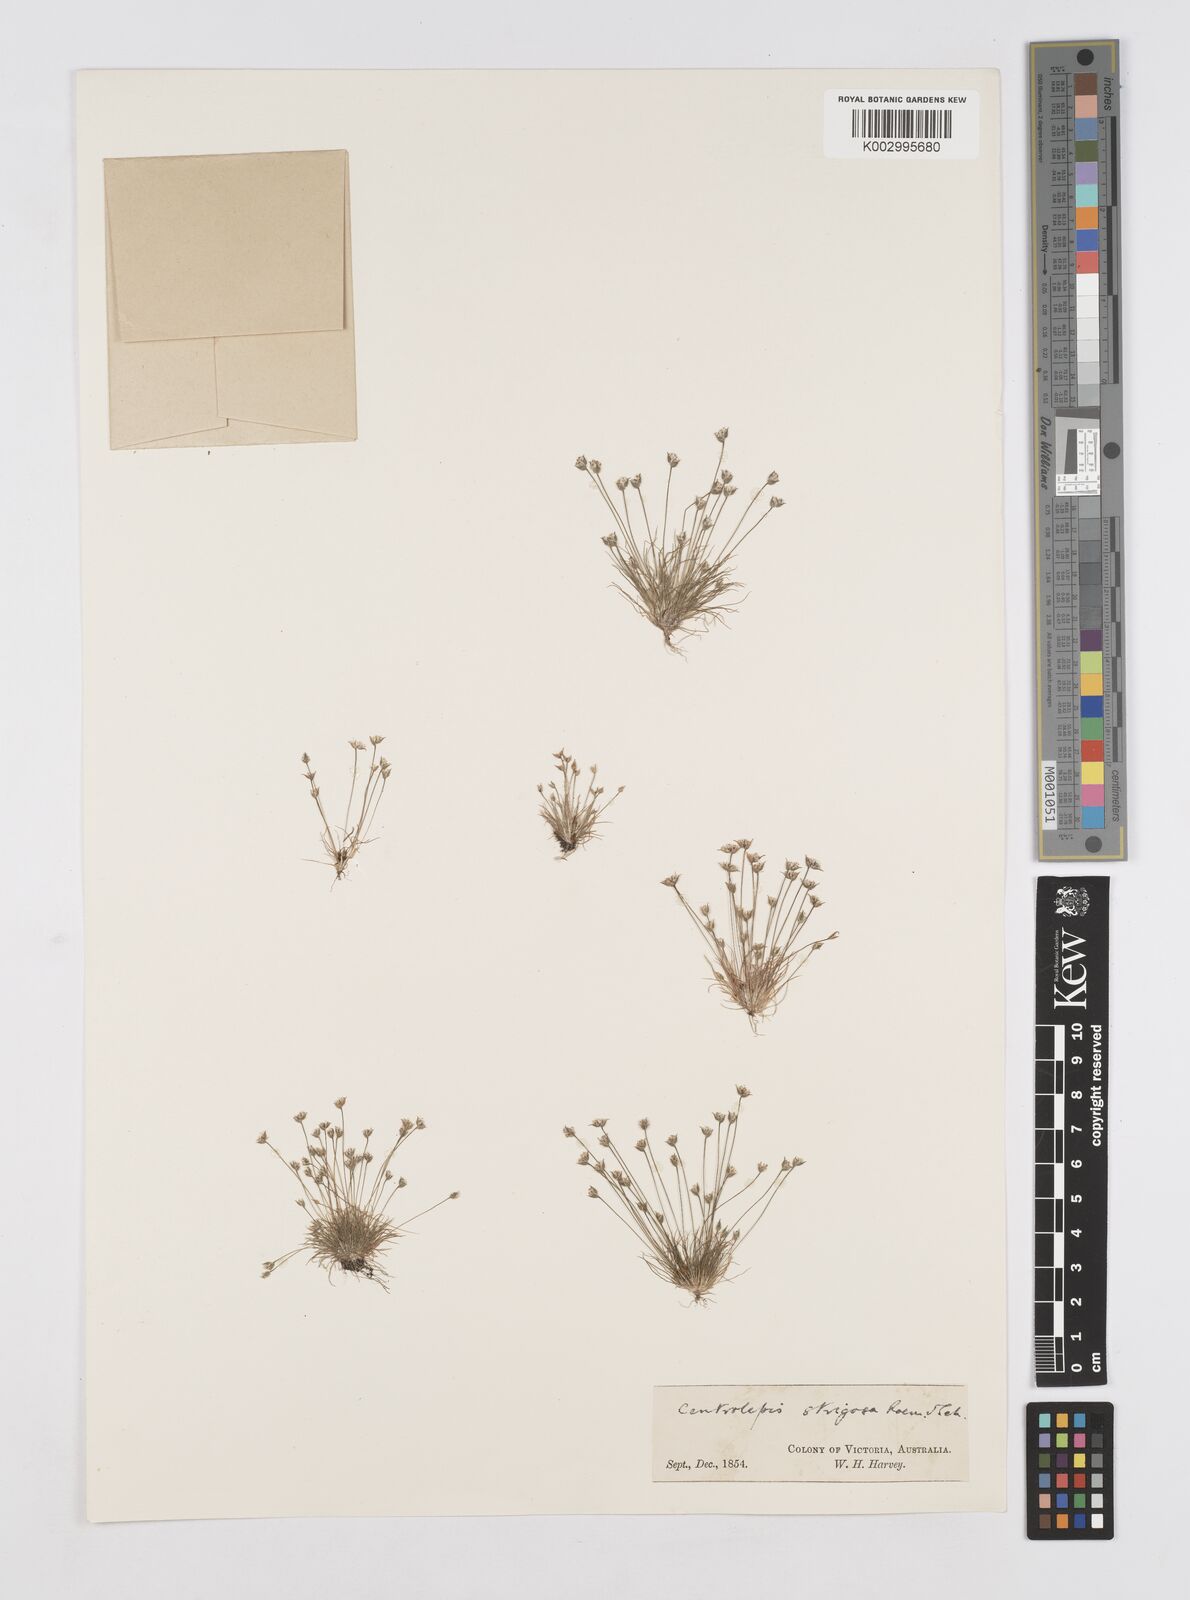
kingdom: Plantae
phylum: Tracheophyta
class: Liliopsida
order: Poales
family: Restionaceae
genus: Centrolepis
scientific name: Centrolepis strigosa
